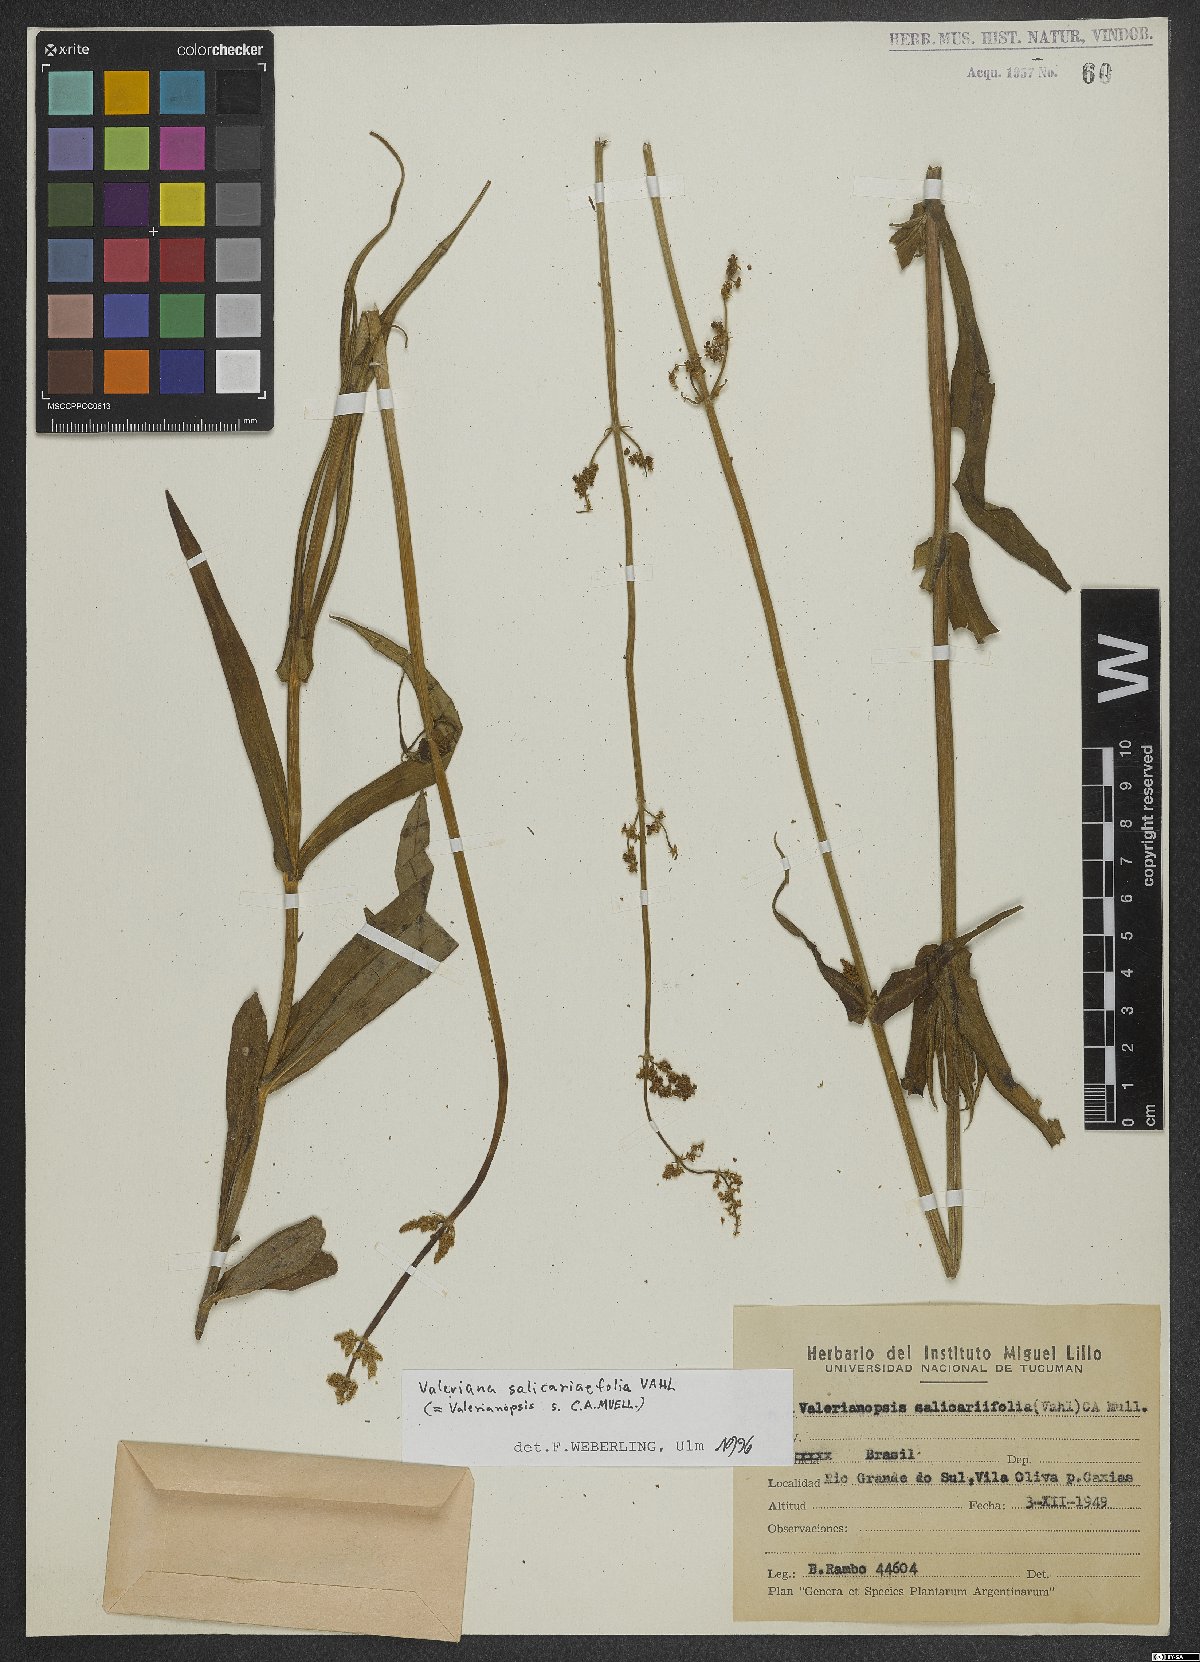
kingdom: Plantae
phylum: Tracheophyta
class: Magnoliopsida
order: Dipsacales
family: Caprifoliaceae
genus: Valeriana
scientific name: Valeriana salicariifolia
